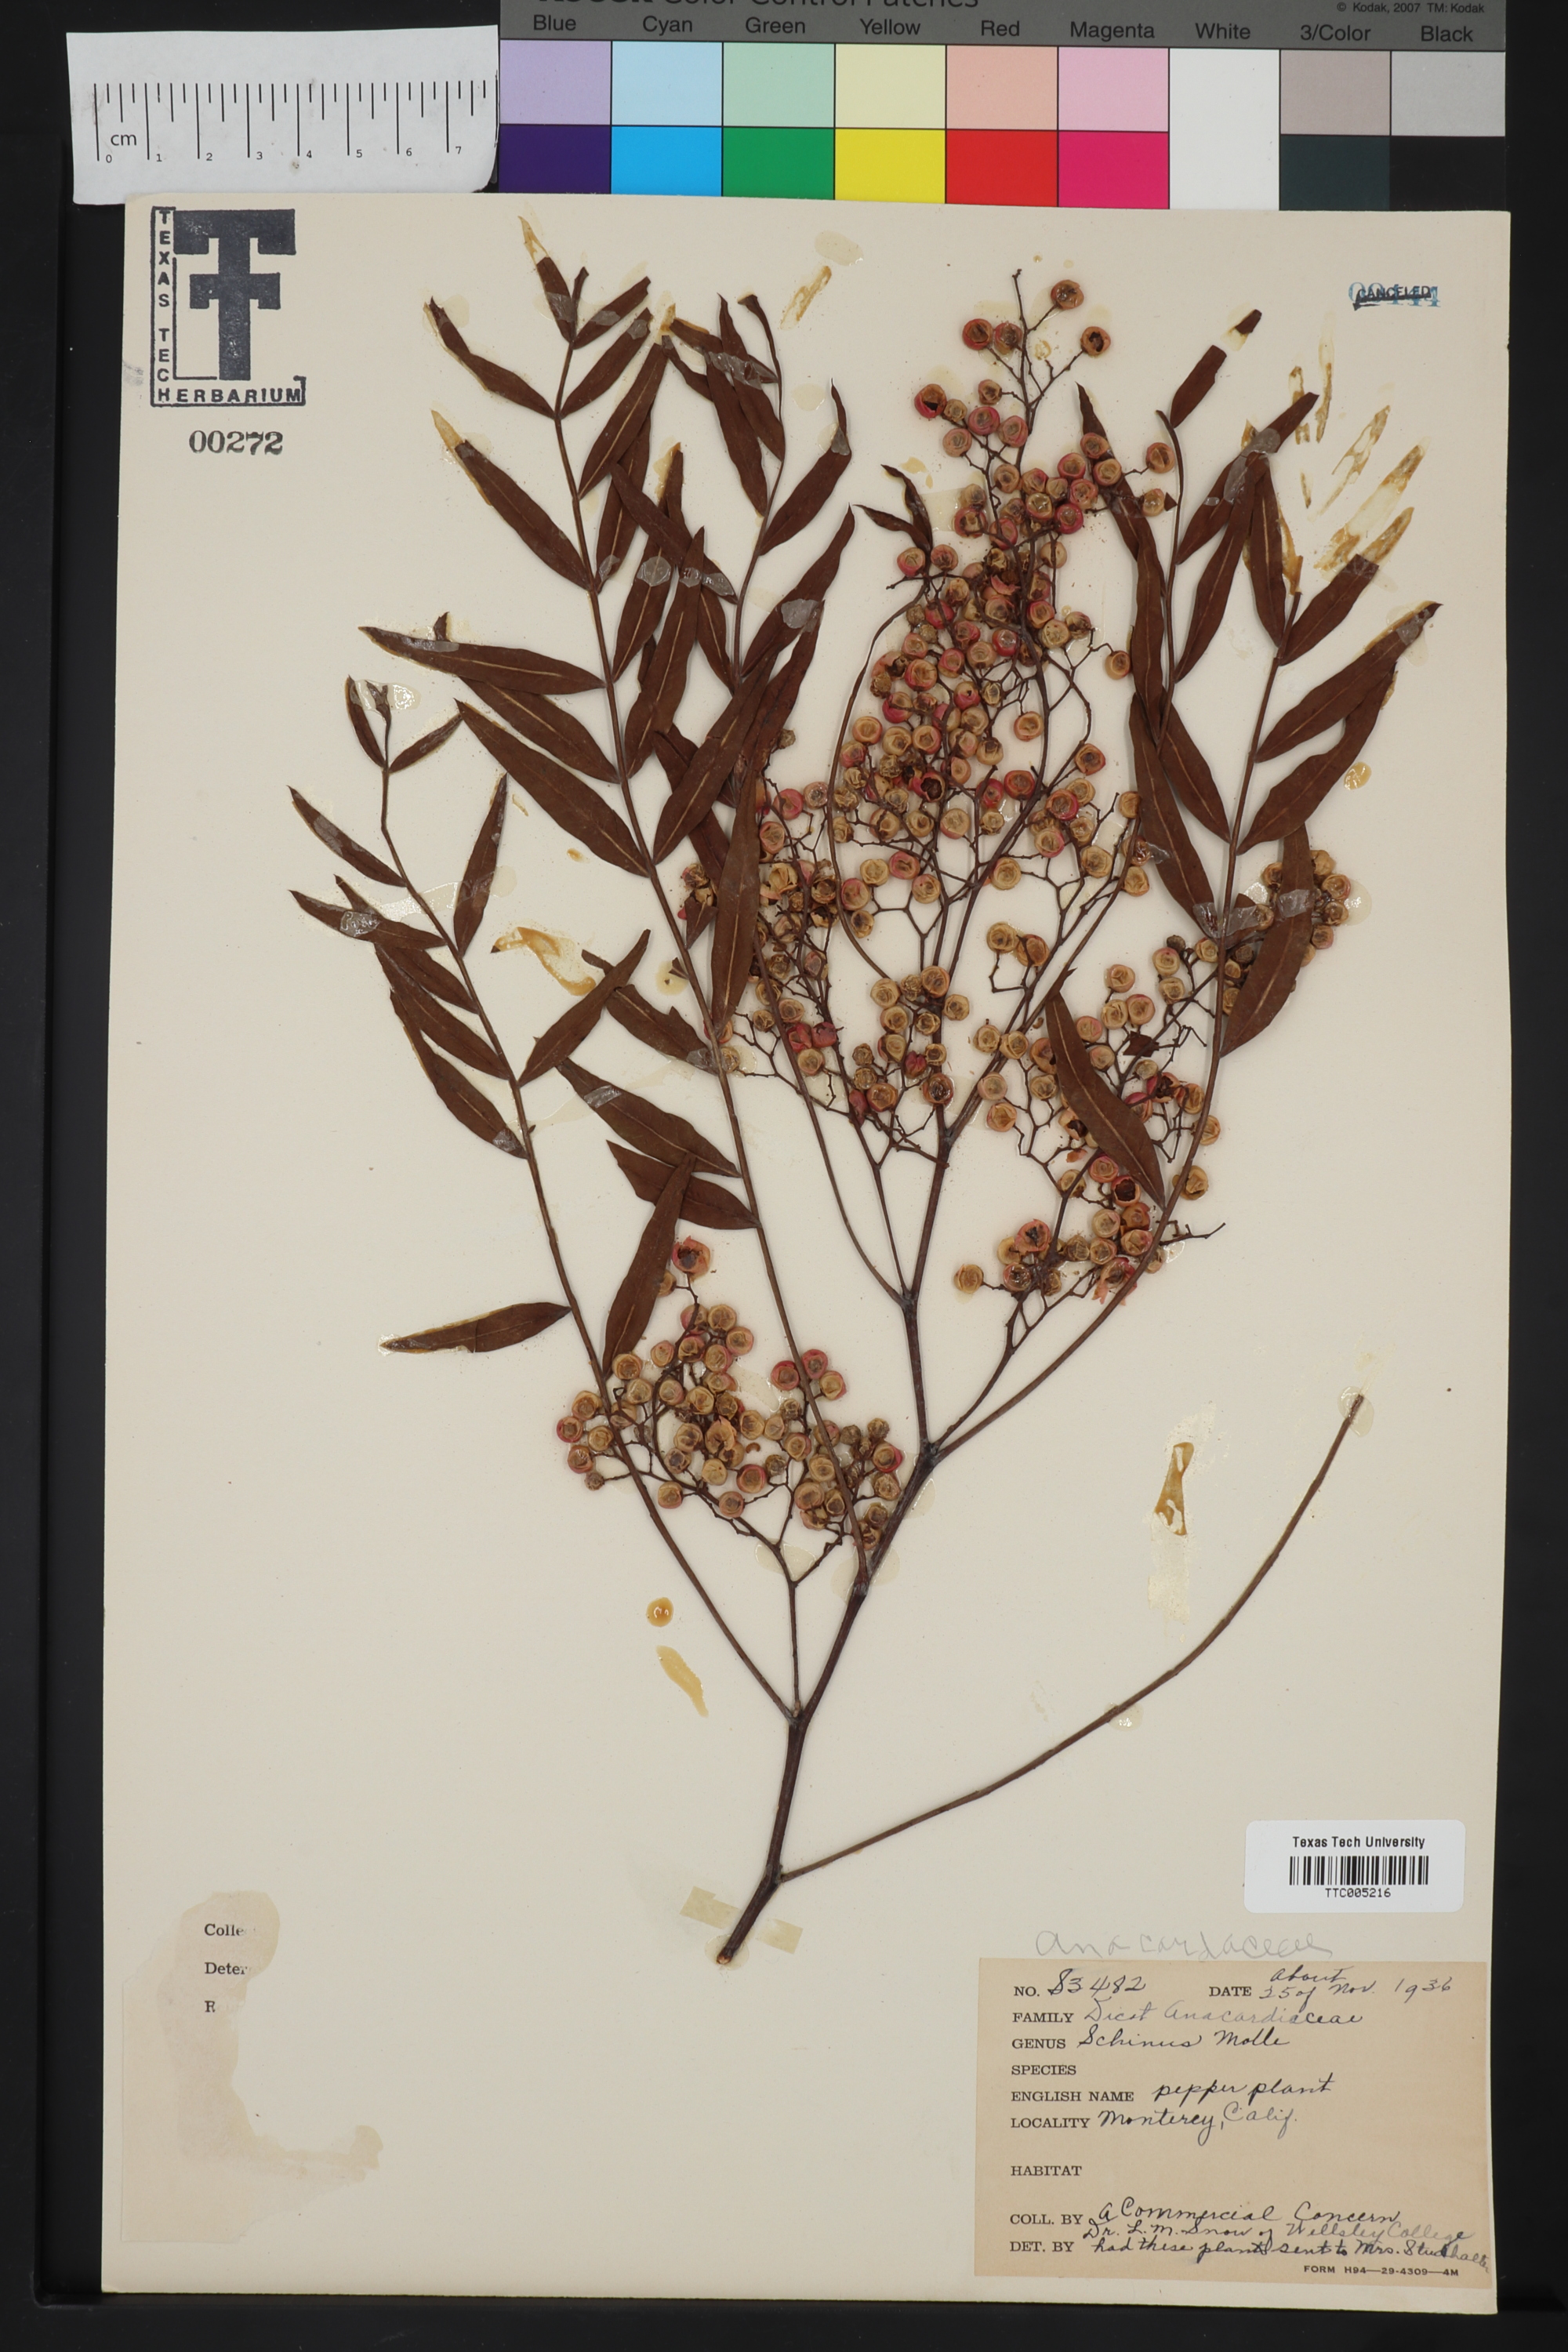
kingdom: Plantae
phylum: Tracheophyta
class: Magnoliopsida
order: Sapindales
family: Anacardiaceae
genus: Schinus
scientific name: Schinus molle
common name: Peruvian peppertree
